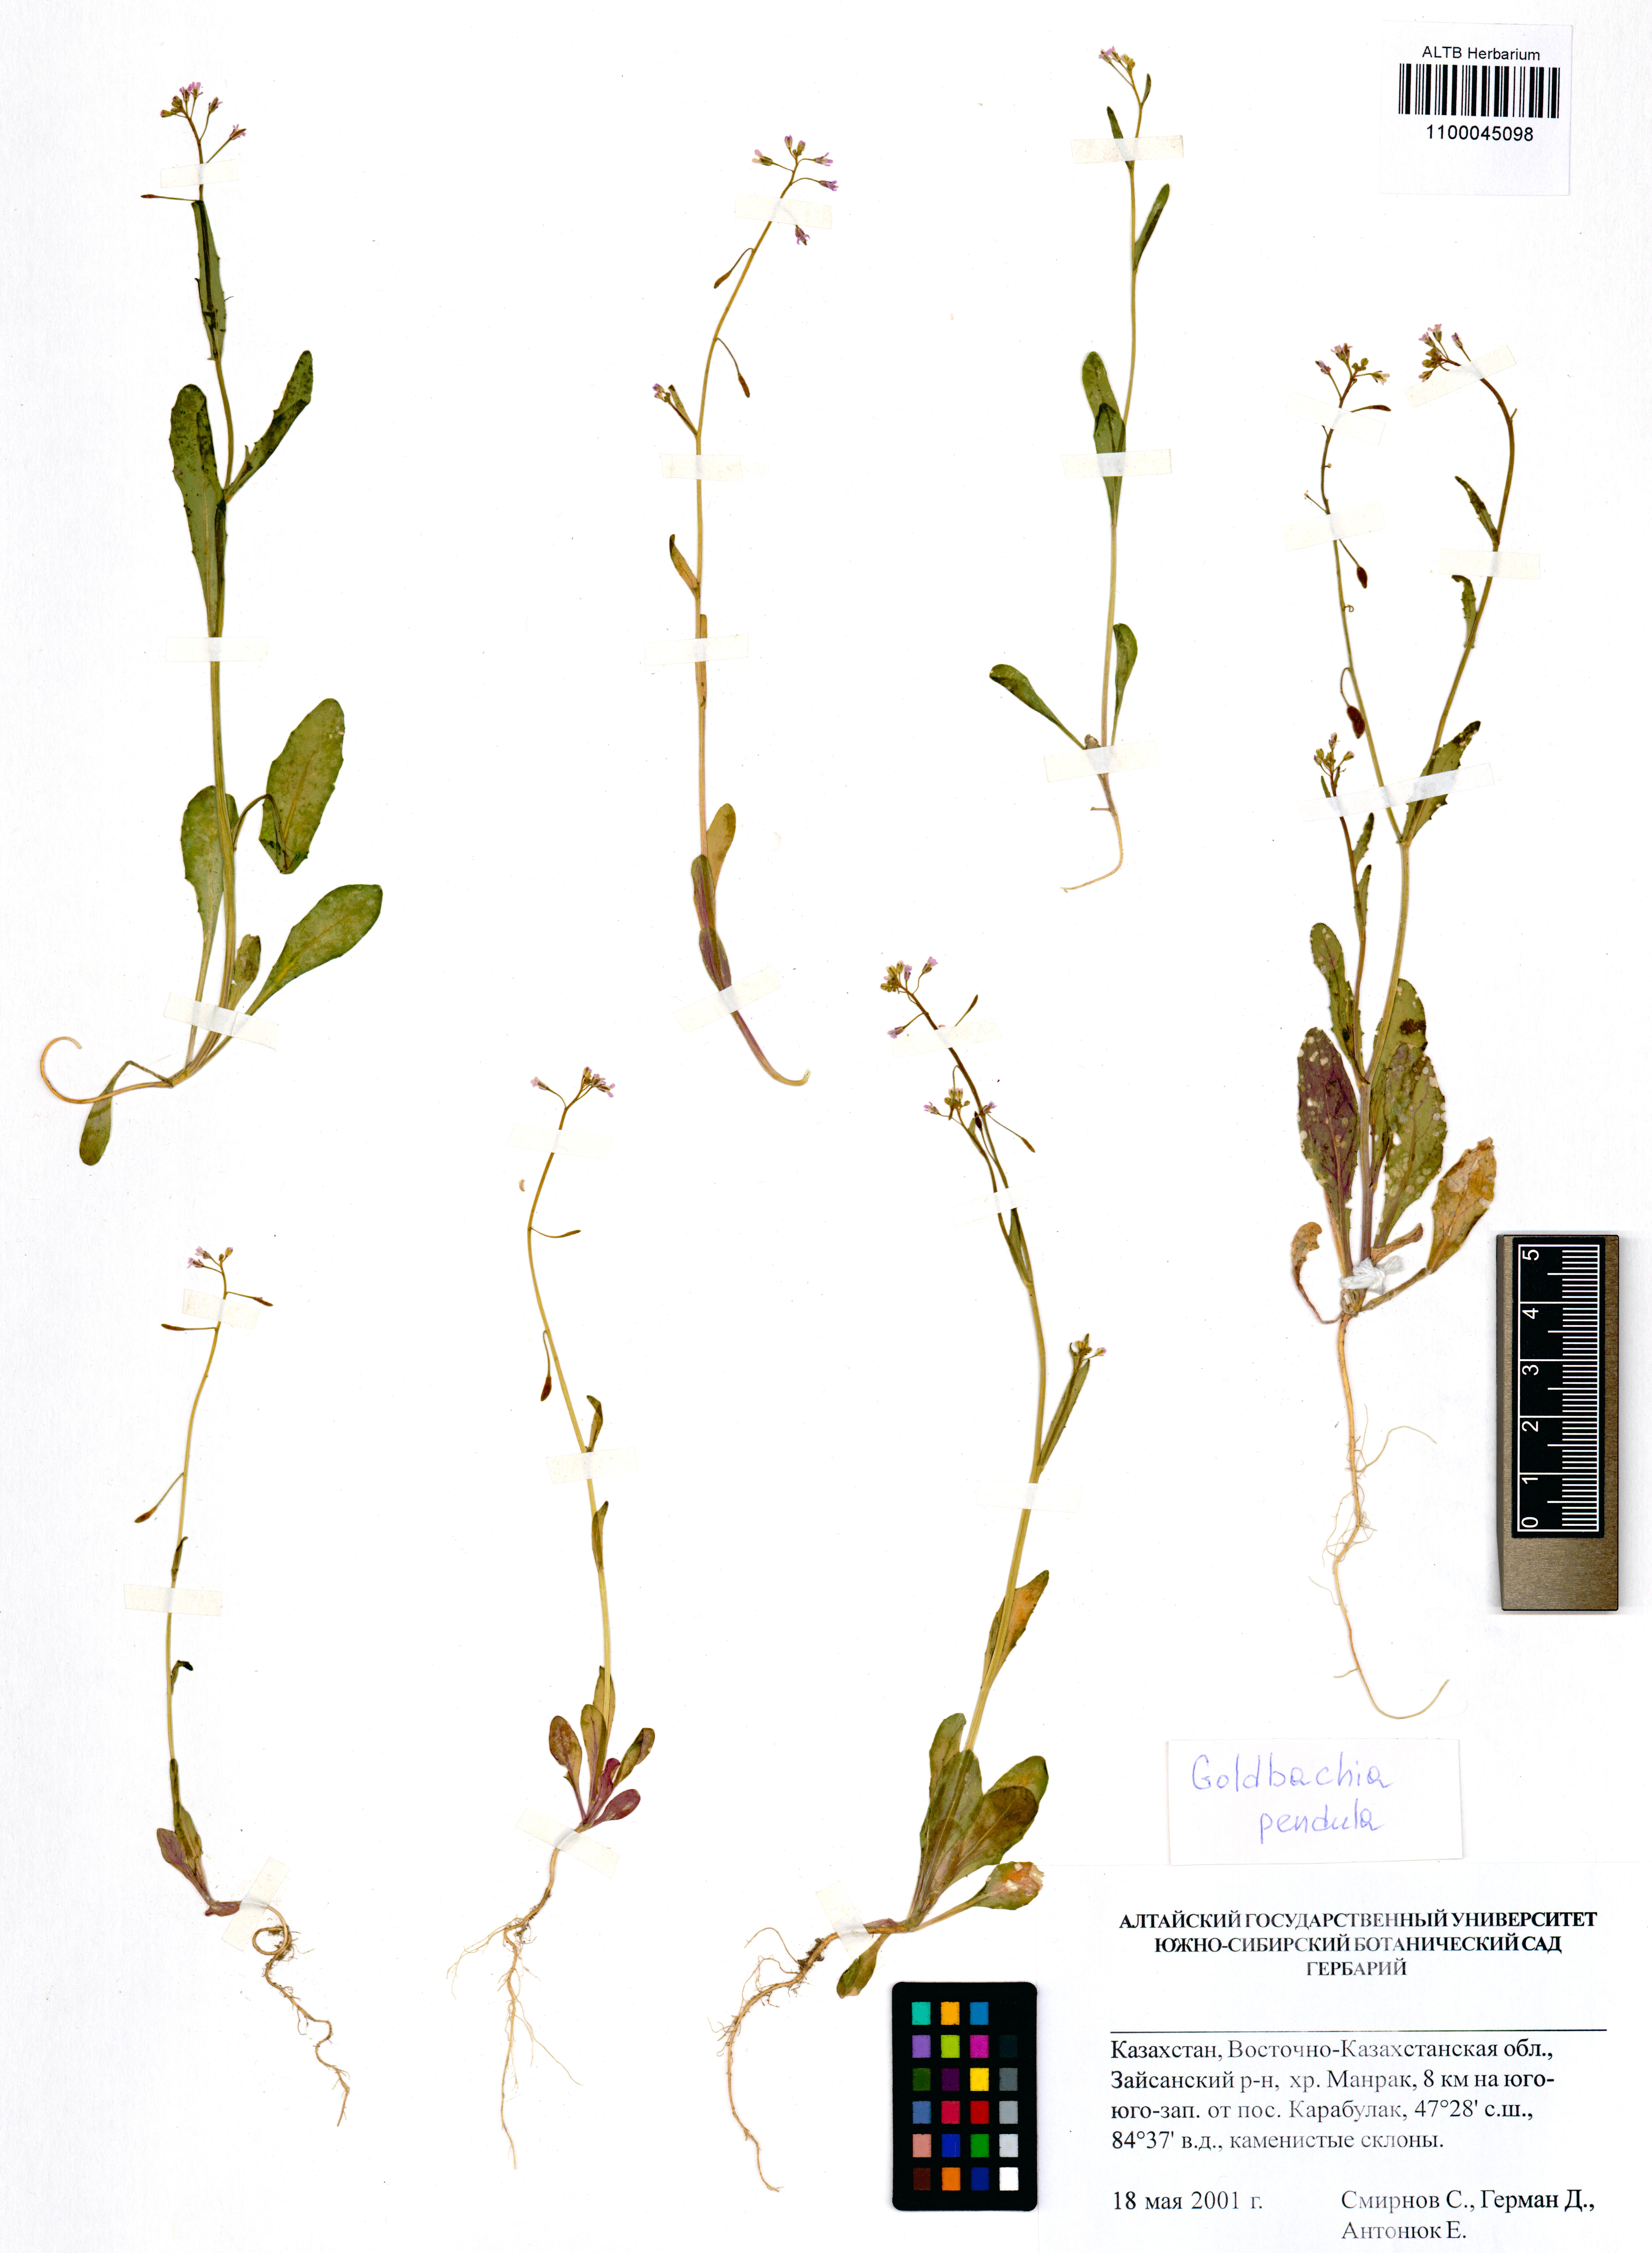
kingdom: Plantae
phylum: Tracheophyta
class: Magnoliopsida
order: Brassicales
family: Brassicaceae
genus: Goldbachia
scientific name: Goldbachia pendula
